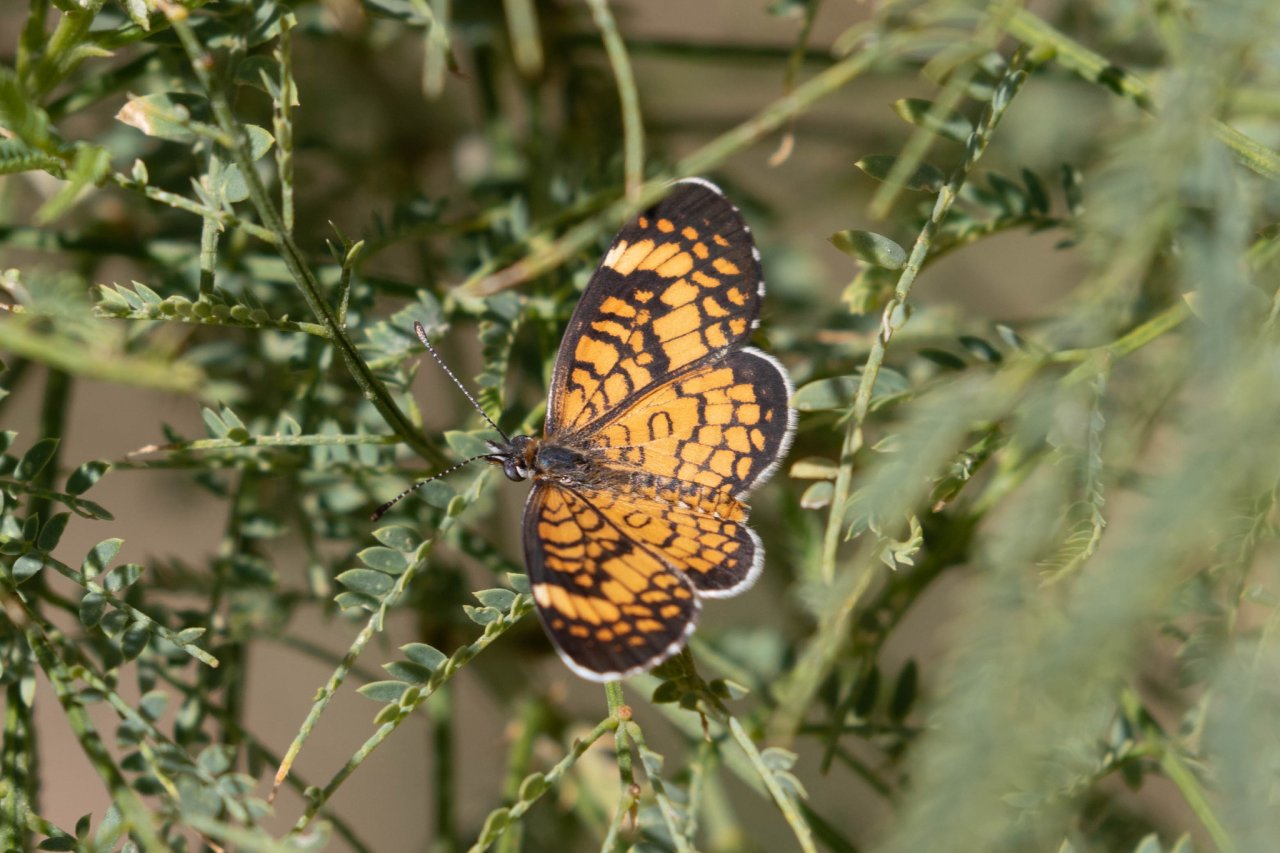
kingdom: Animalia
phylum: Arthropoda
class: Insecta
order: Lepidoptera
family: Nymphalidae
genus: Dymasia
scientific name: Dymasia dymas
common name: Tiny Checkerspot
